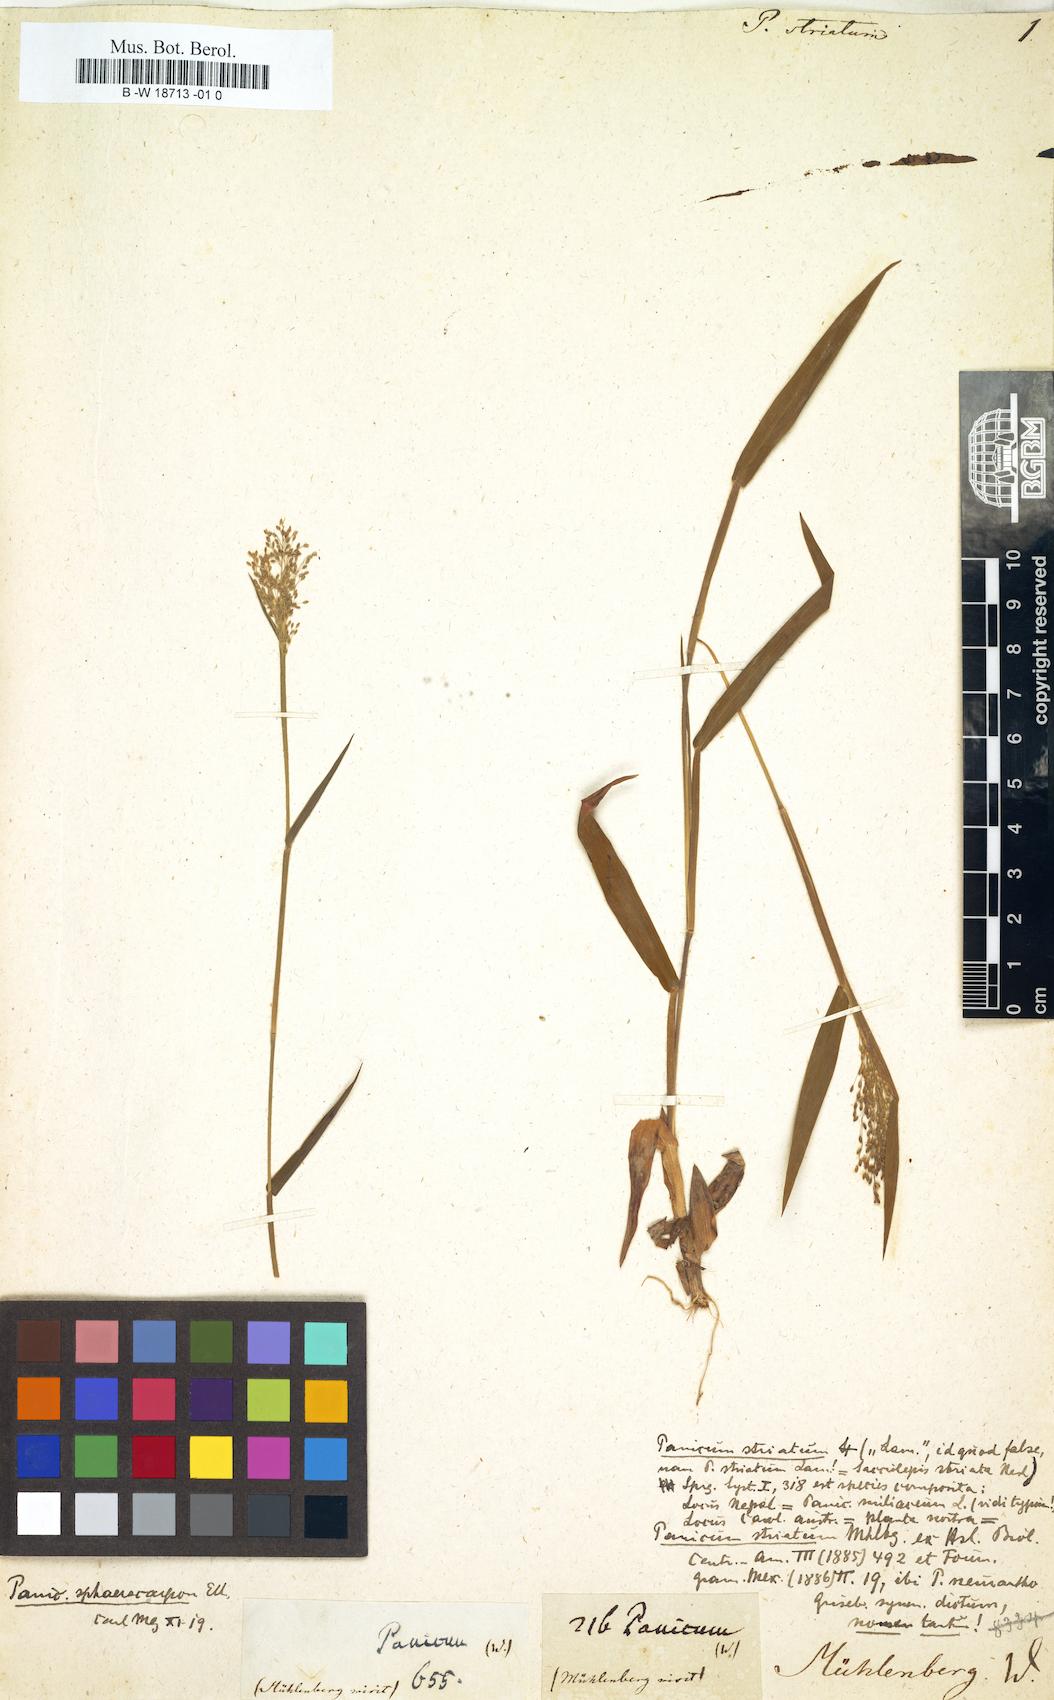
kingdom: Plantae
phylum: Tracheophyta
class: Liliopsida
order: Poales
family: Poaceae
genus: Sacciolepis
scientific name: Sacciolepis striata
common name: American cupscale
